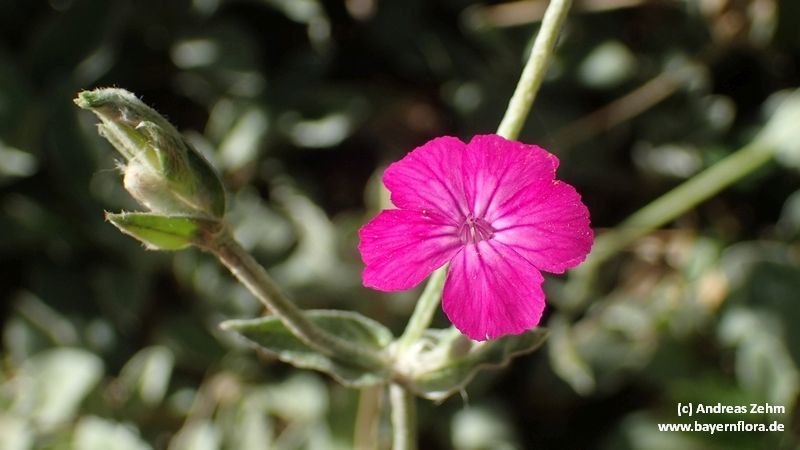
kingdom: Plantae
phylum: Tracheophyta
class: Magnoliopsida
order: Caryophyllales
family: Caryophyllaceae
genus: Silene
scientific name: Silene coronaria
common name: Rose campion
